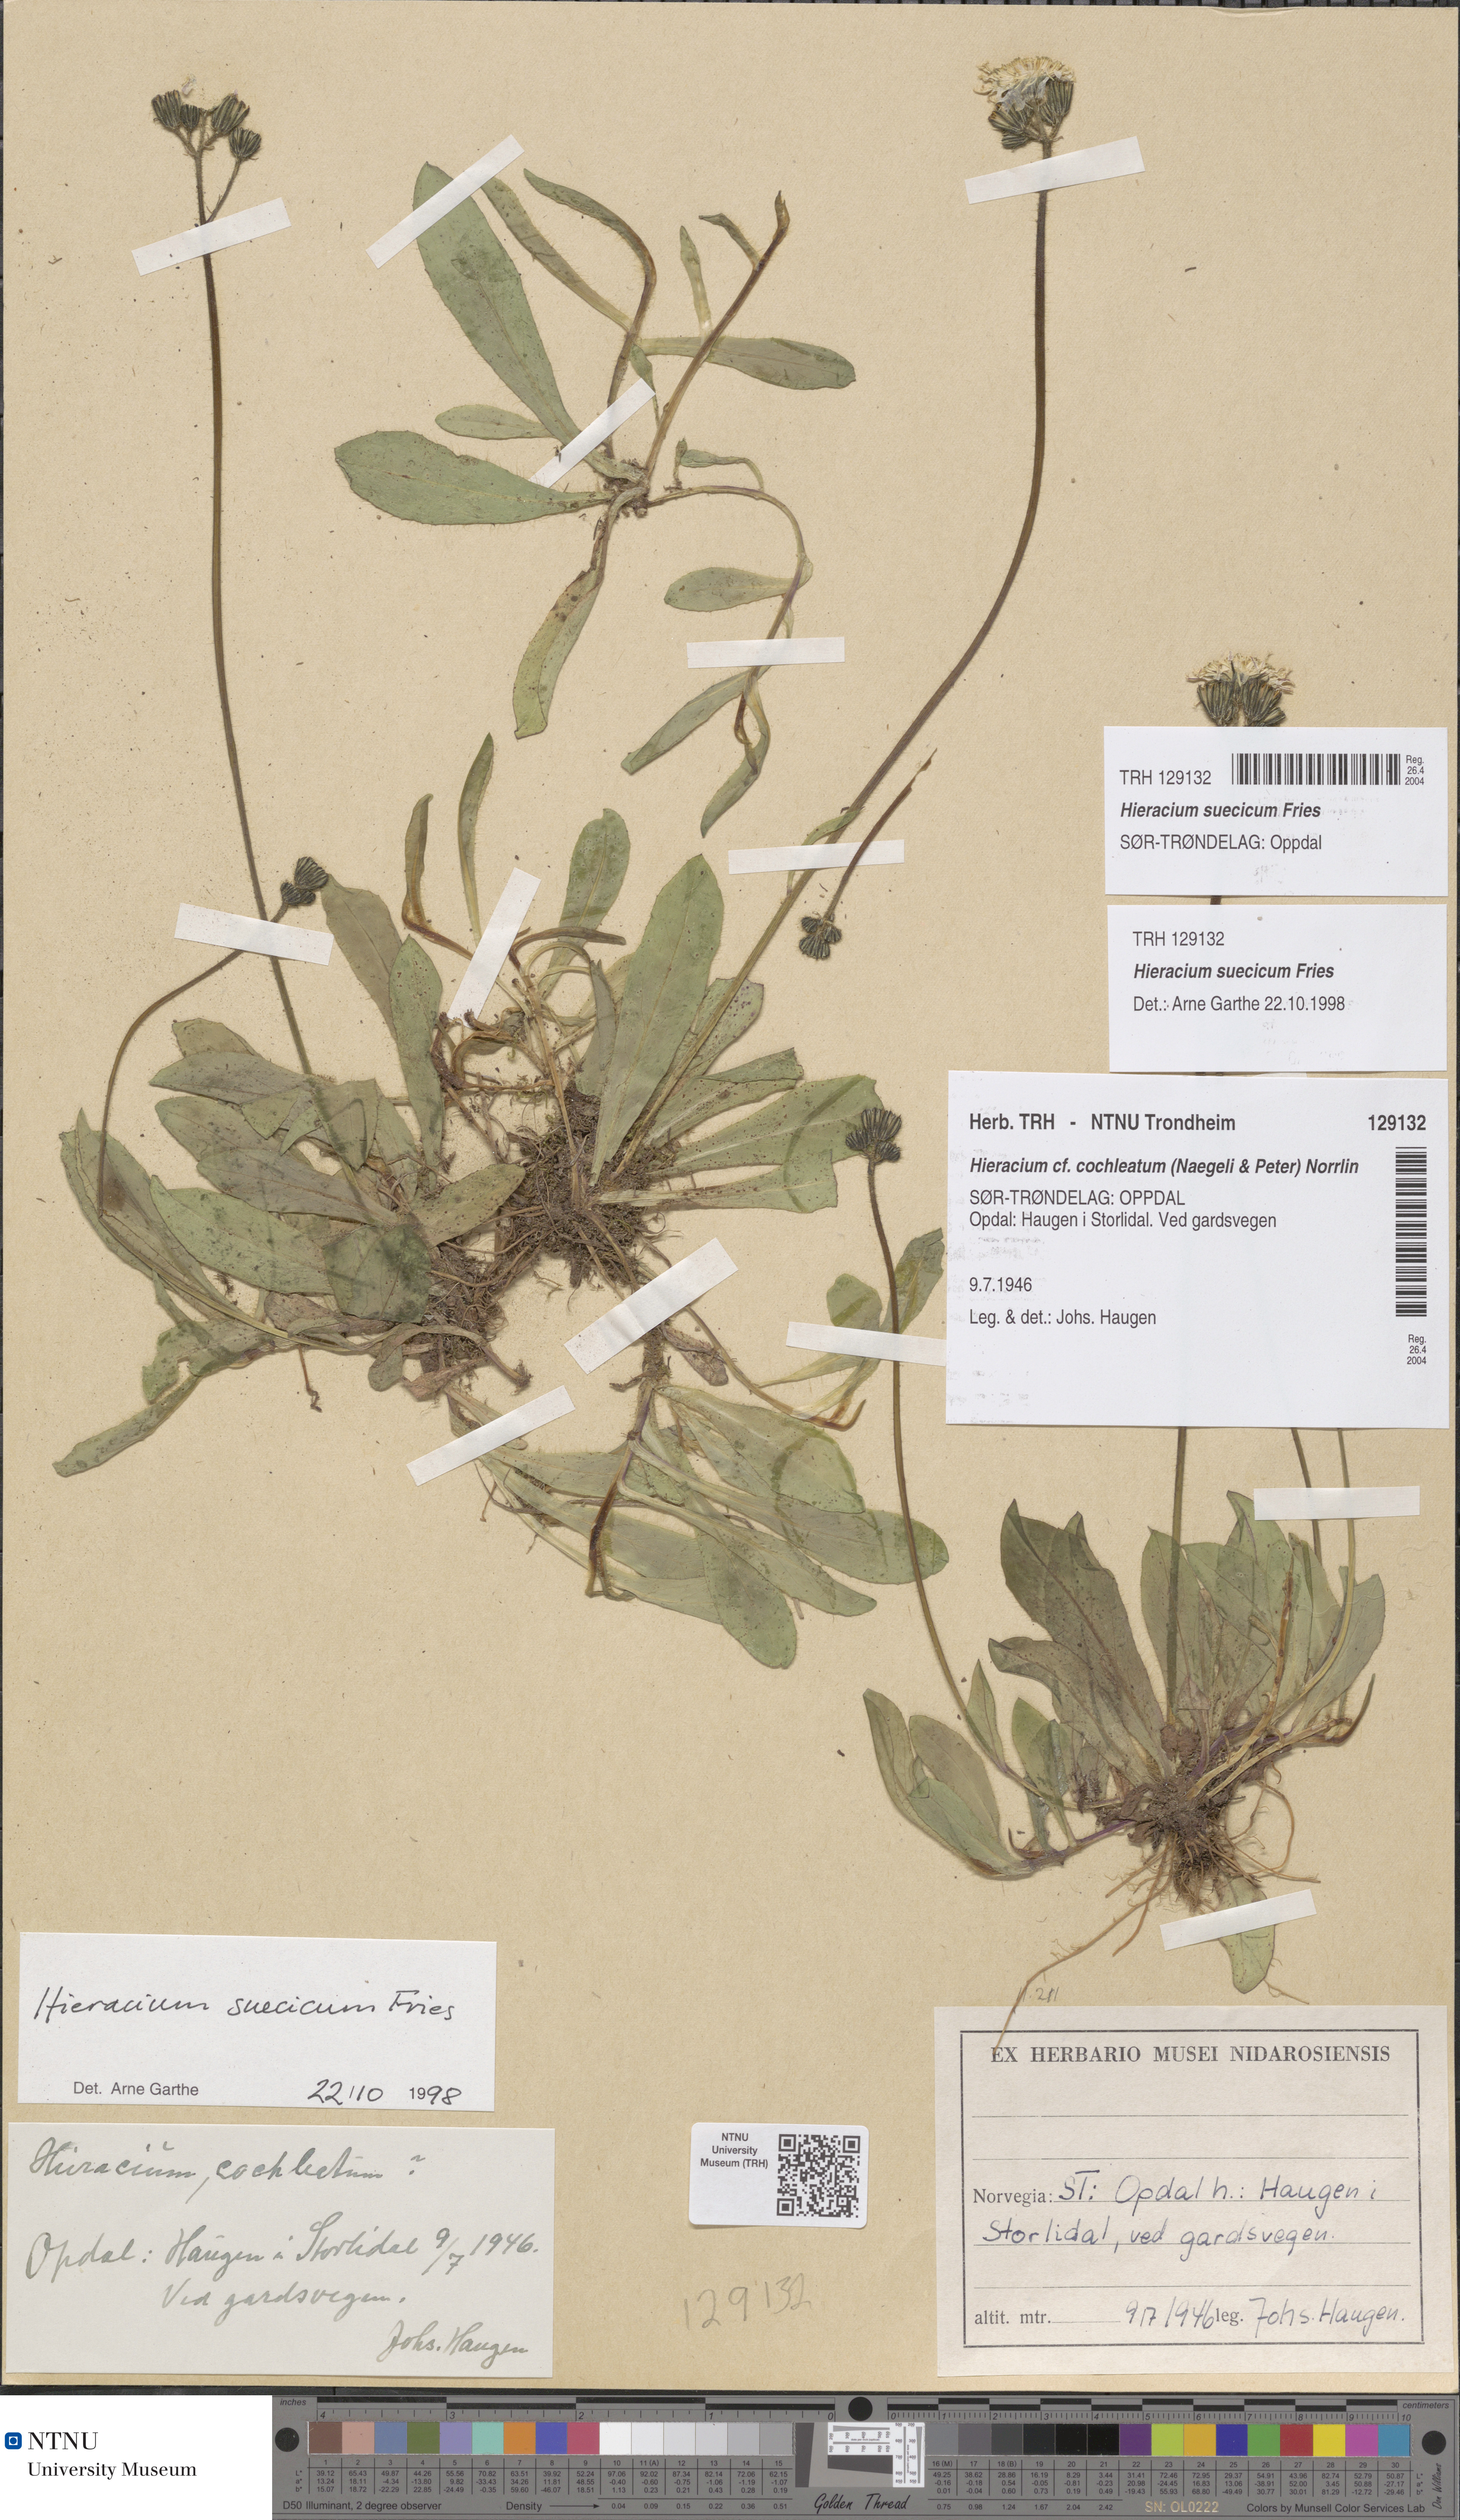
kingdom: Plantae
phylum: Tracheophyta
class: Magnoliopsida
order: Asterales
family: Asteraceae
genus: Pilosella
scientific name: Pilosella dubia
